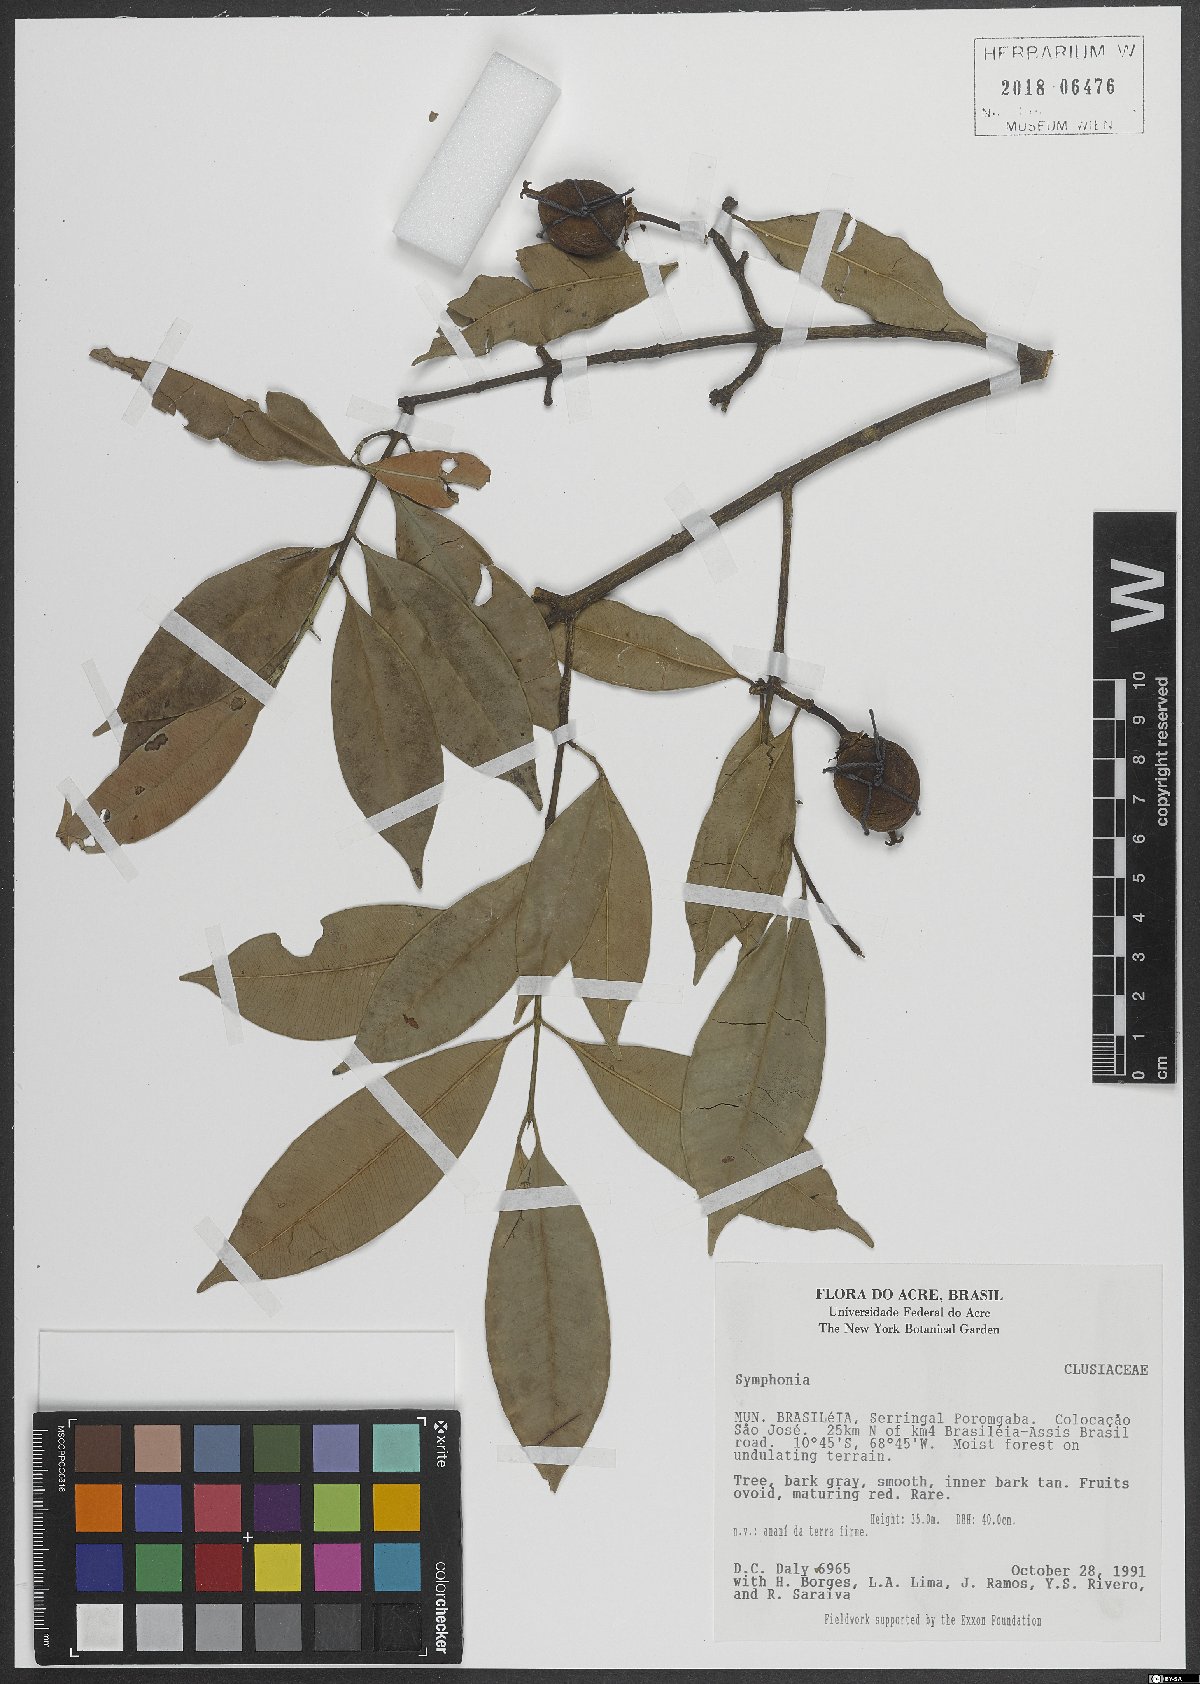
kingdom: Plantae
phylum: Tracheophyta
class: Magnoliopsida
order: Malpighiales
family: Clusiaceae
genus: Symphonia
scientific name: Symphonia
